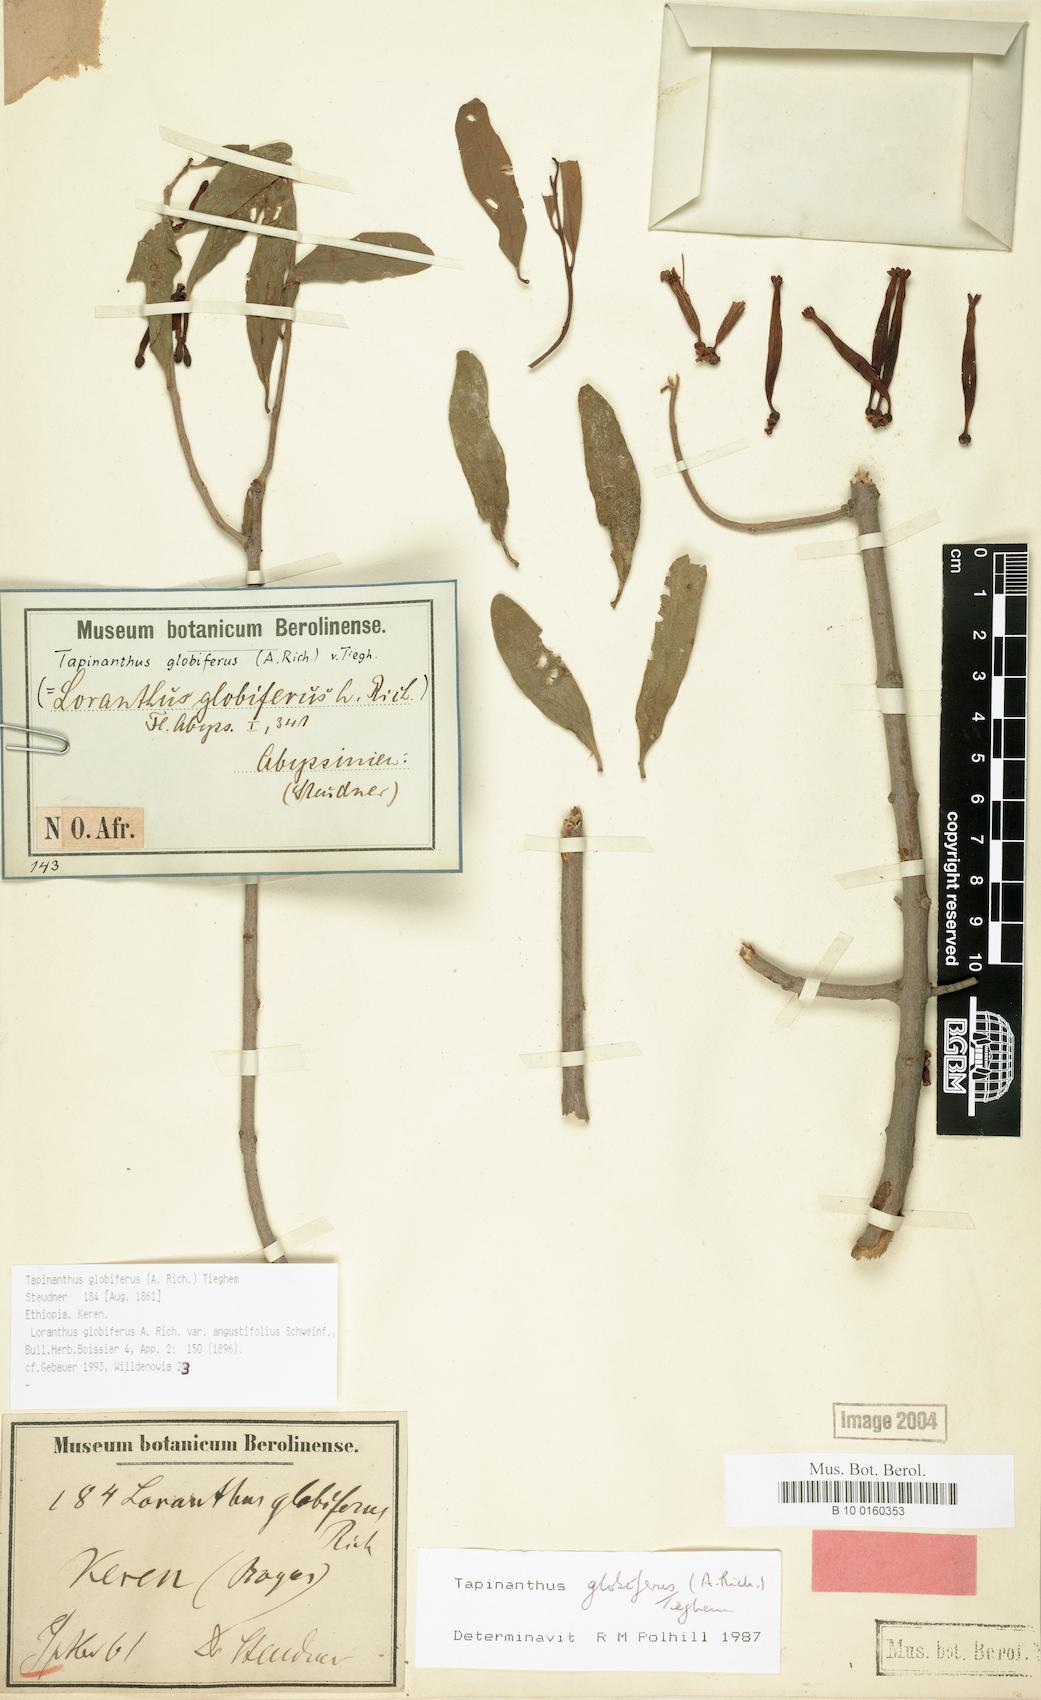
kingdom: Plantae
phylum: Tracheophyta
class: Magnoliopsida
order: Santalales
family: Loranthaceae
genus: Tapinanthus
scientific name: Tapinanthus globiferus
